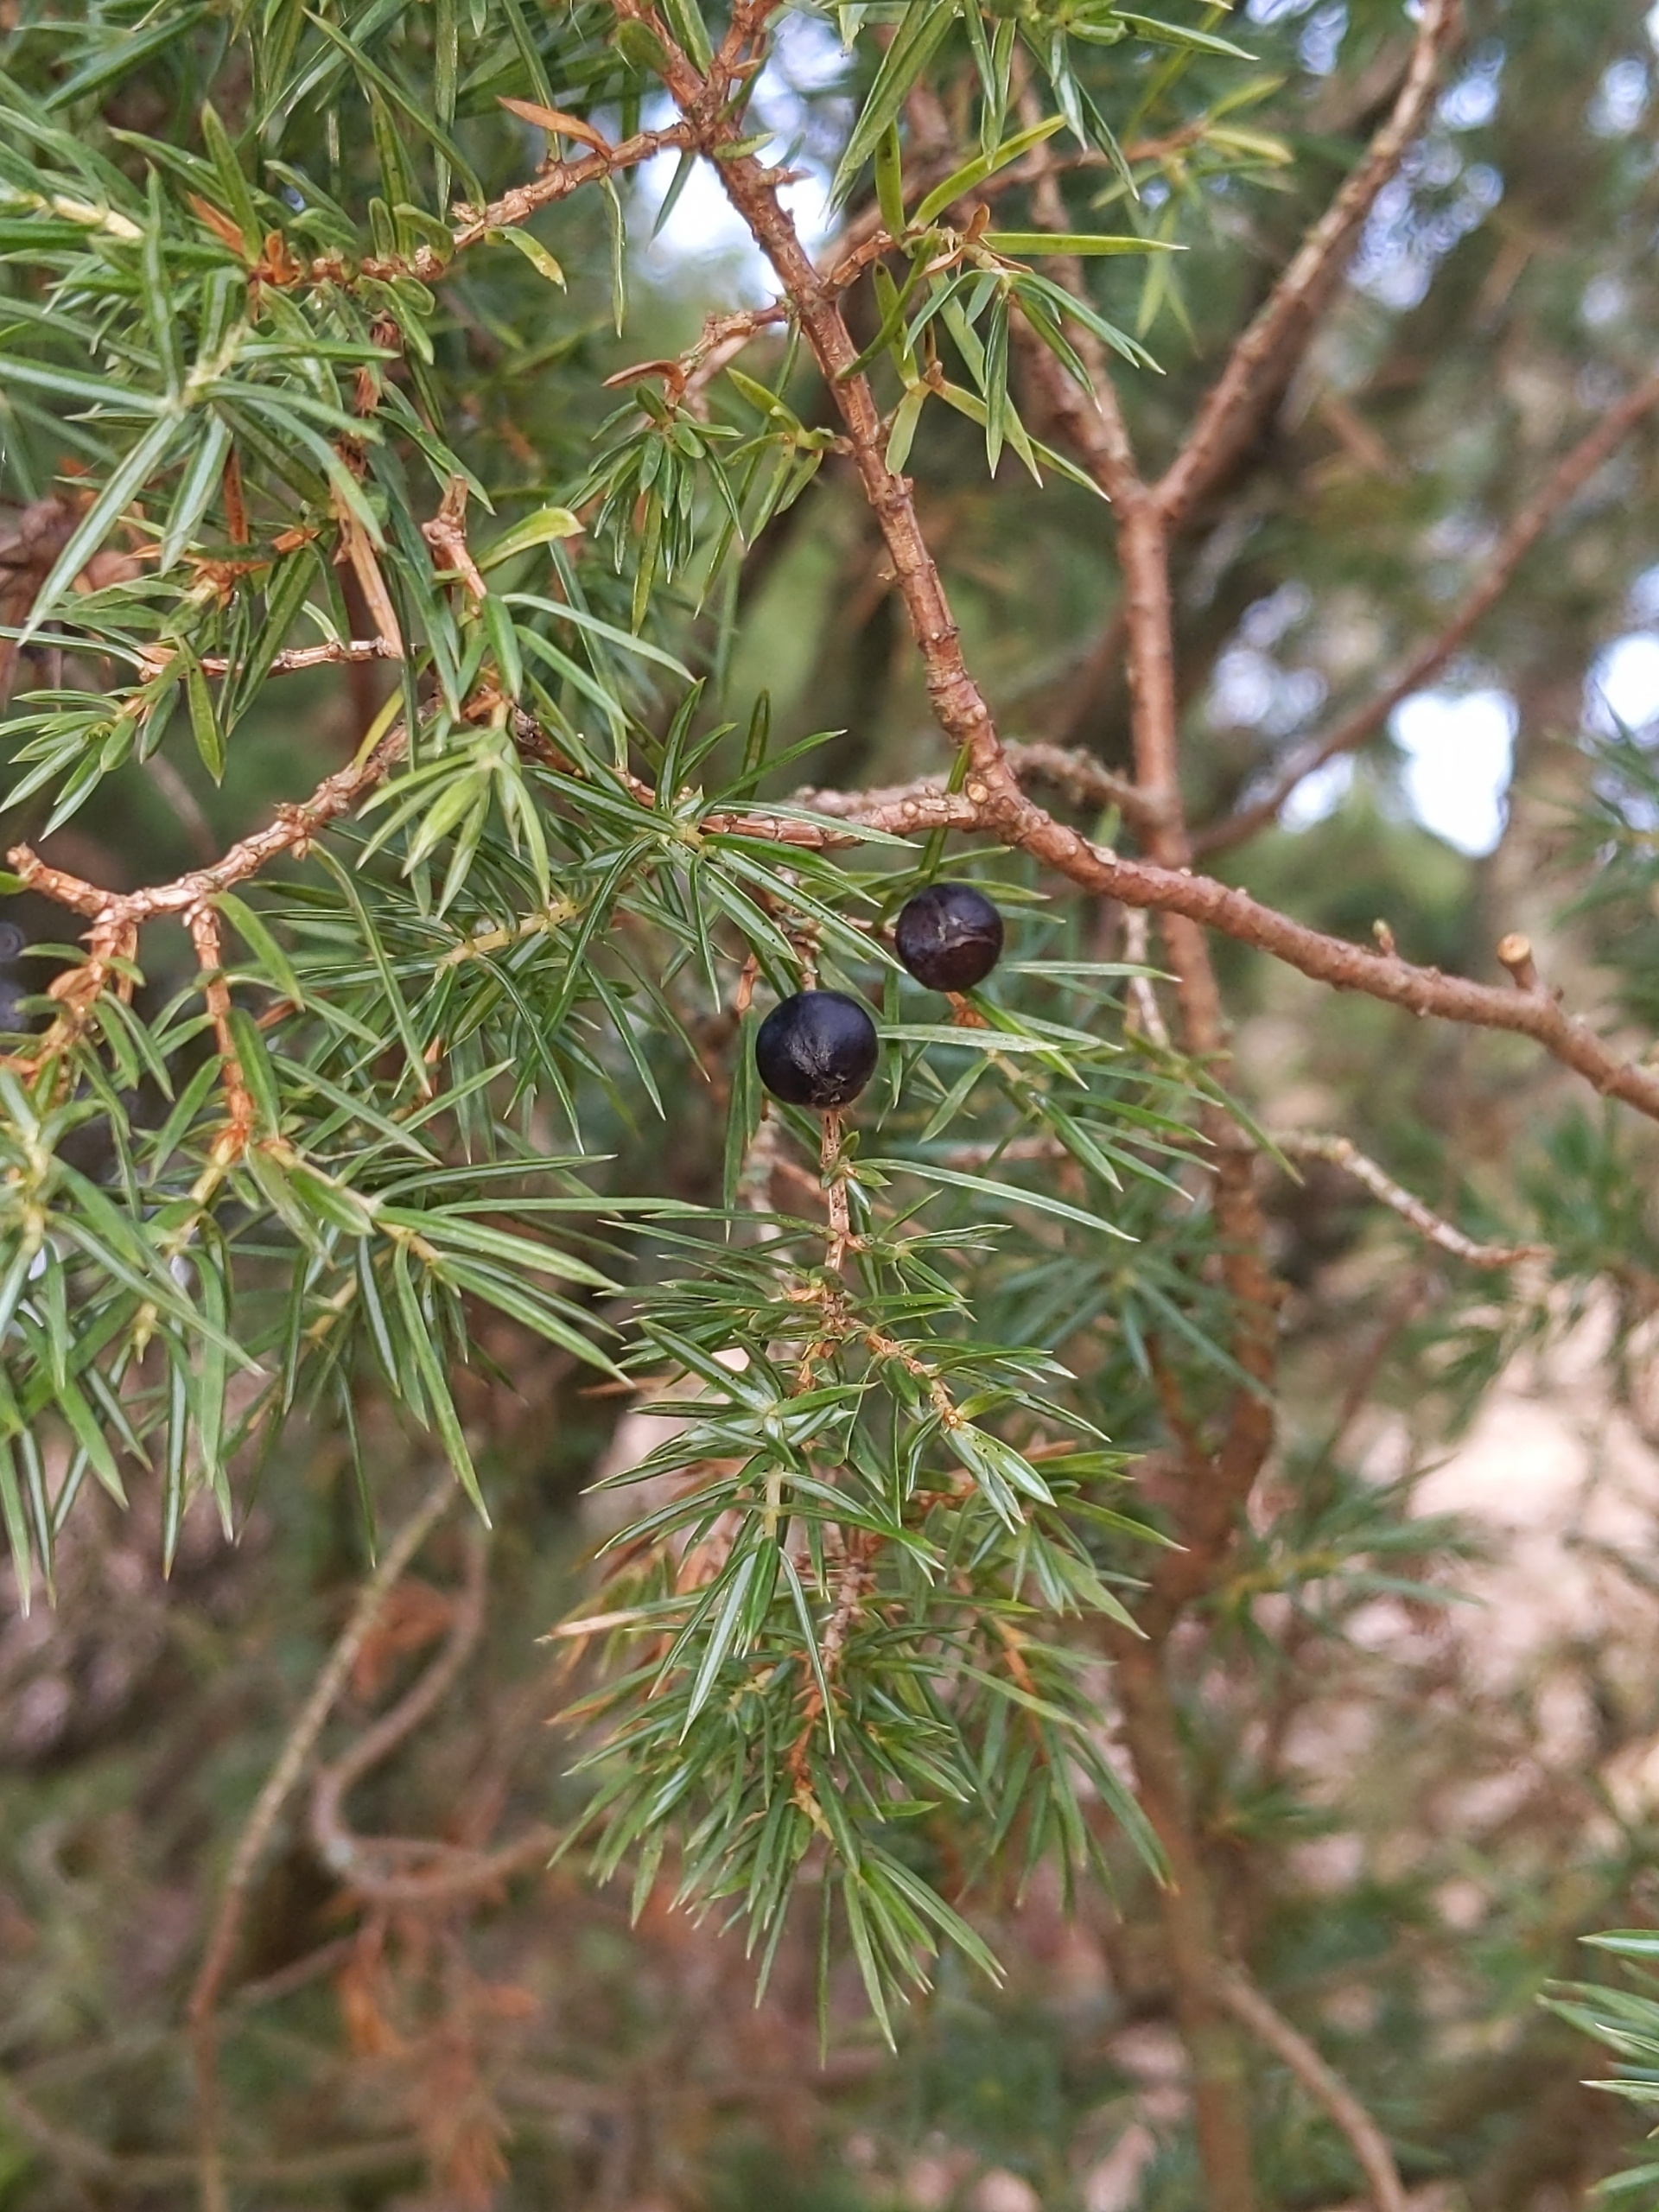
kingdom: Plantae
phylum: Tracheophyta
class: Pinopsida
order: Pinales
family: Cupressaceae
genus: Juniperus
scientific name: Juniperus communis
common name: Almindelig ene
